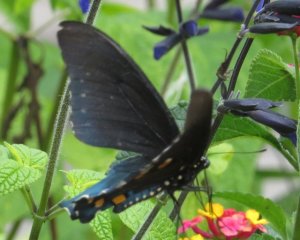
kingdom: Animalia
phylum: Arthropoda
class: Insecta
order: Lepidoptera
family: Papilionidae
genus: Battus
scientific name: Battus philenor
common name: Pipevine Swallowtail
